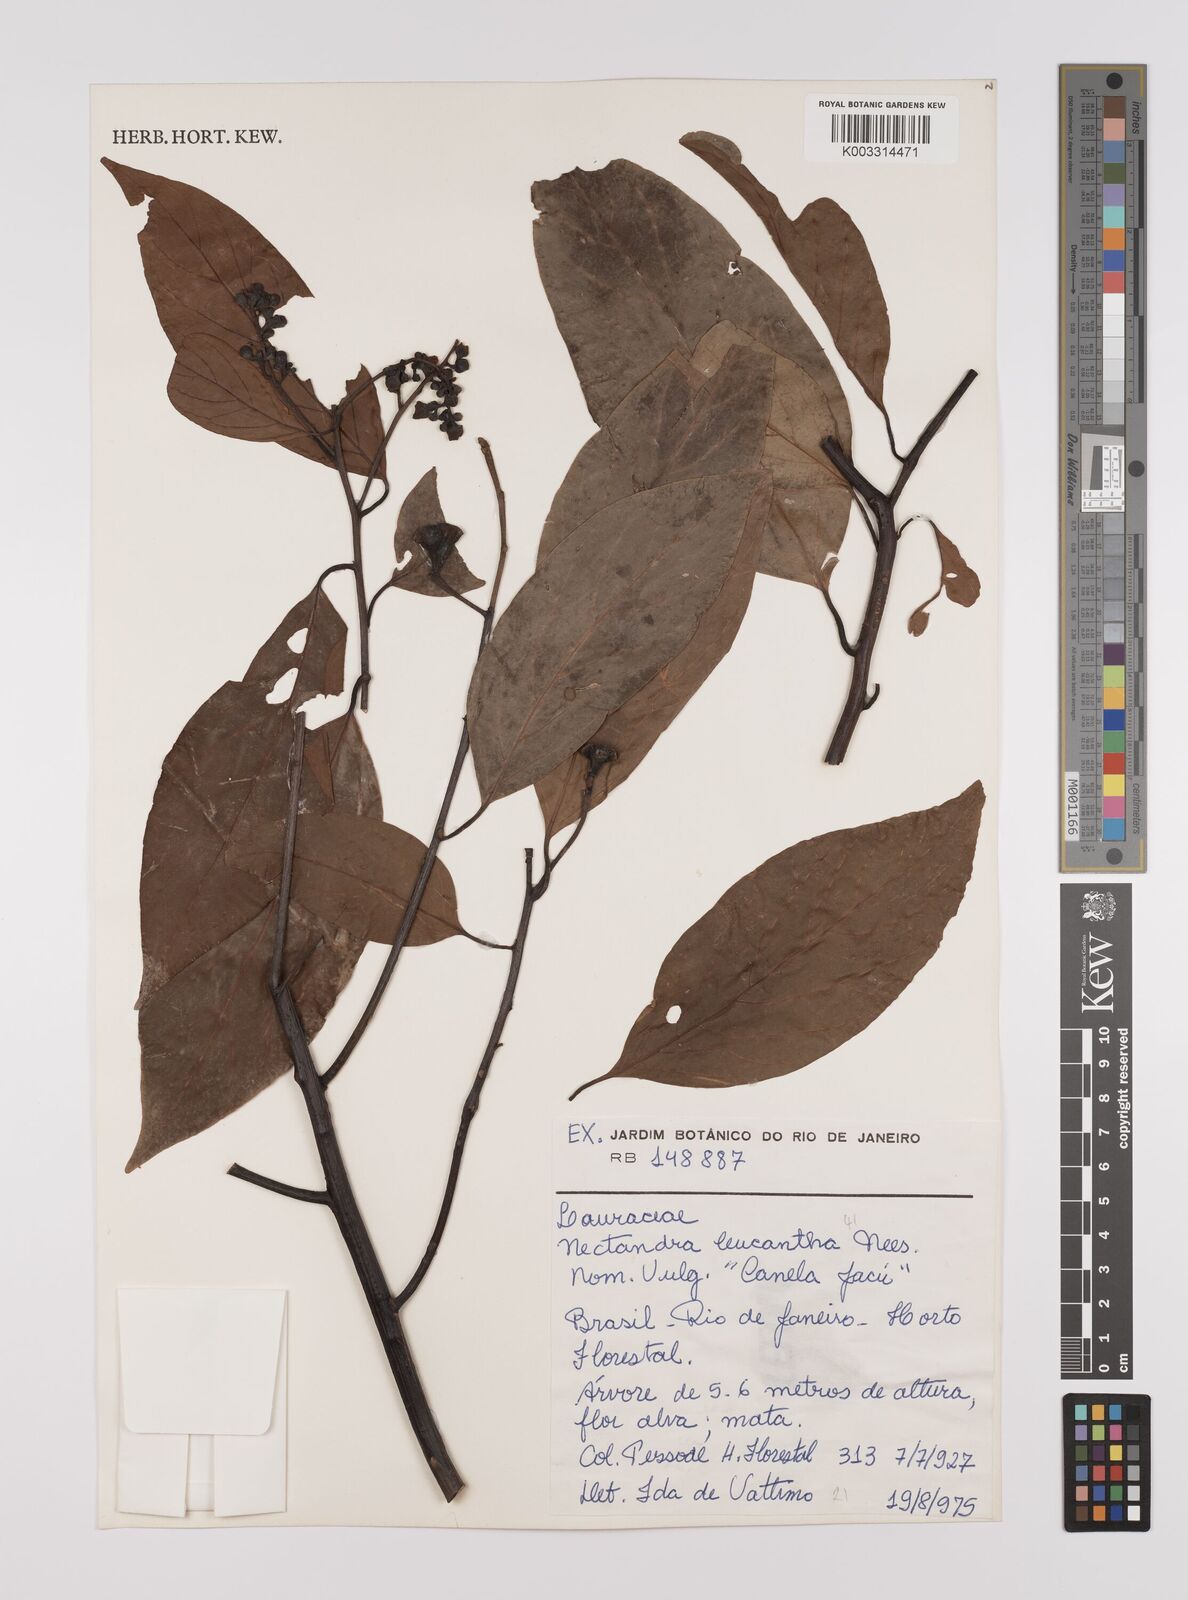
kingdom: Plantae
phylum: Tracheophyta
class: Magnoliopsida
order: Laurales
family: Lauraceae
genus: Nectandra
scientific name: Nectandra leucantha
